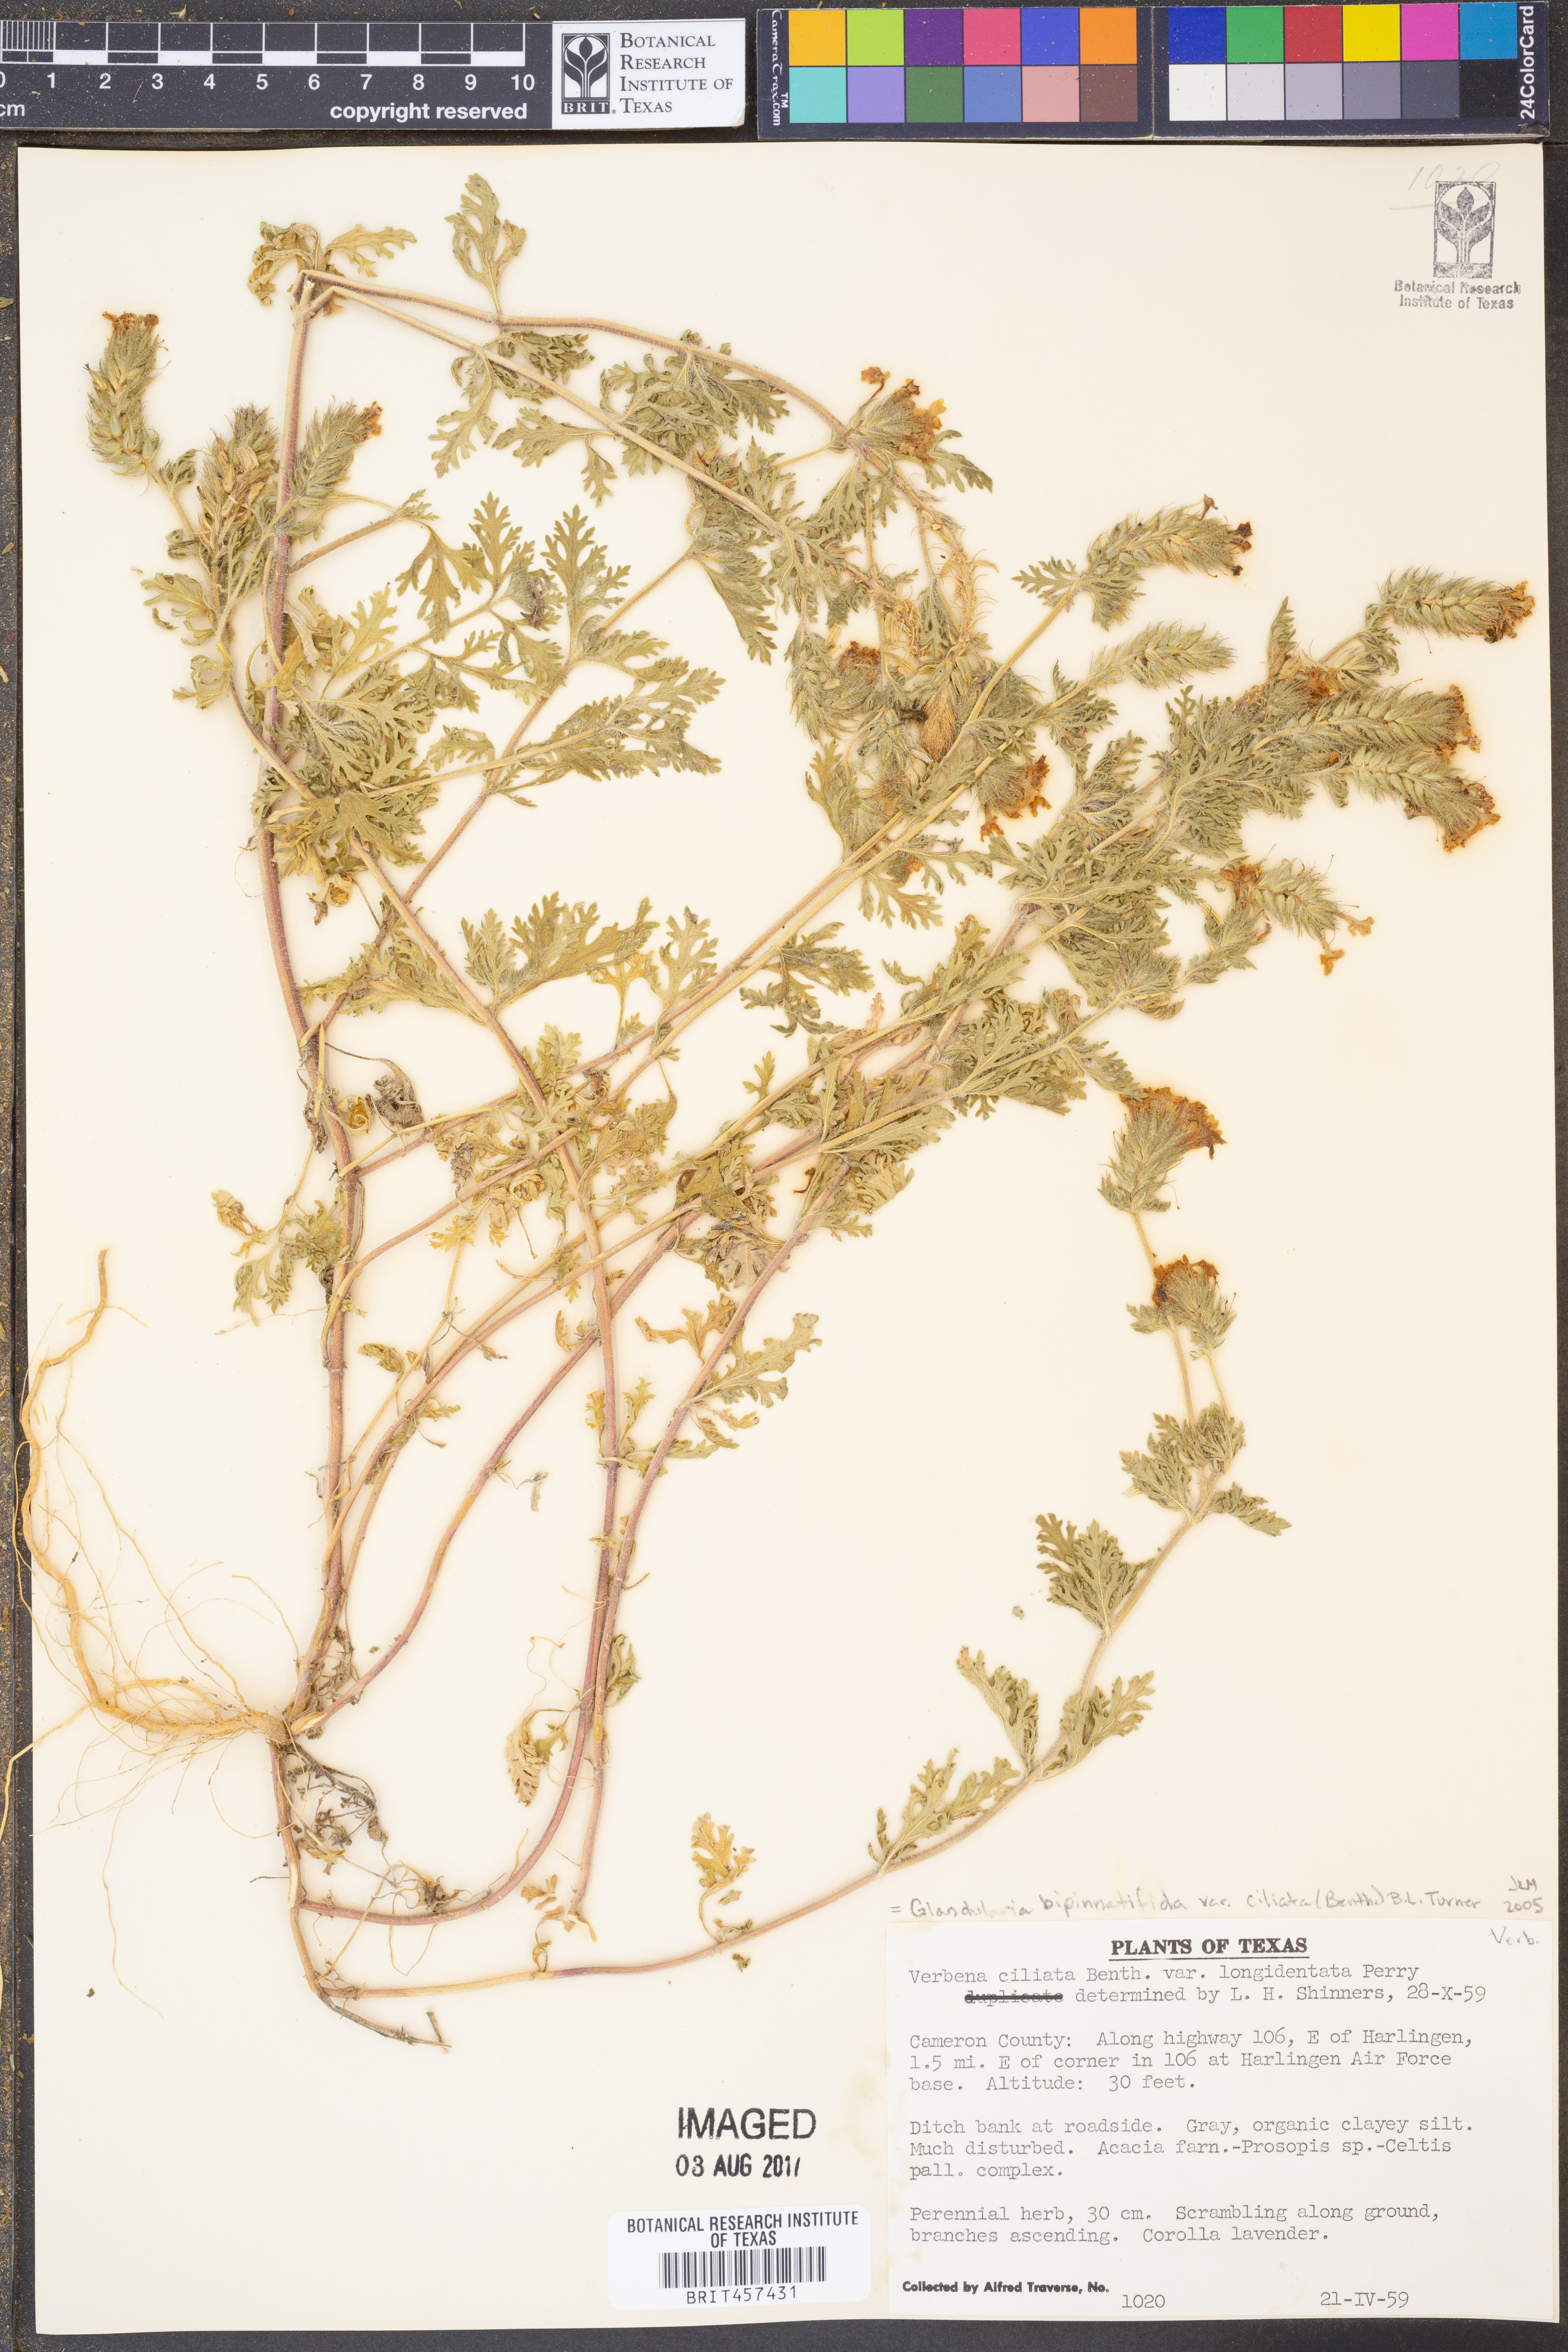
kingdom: Plantae
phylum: Tracheophyta
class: Magnoliopsida
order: Lamiales
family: Verbenaceae
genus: Verbena
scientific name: Verbena bipinnatifida
